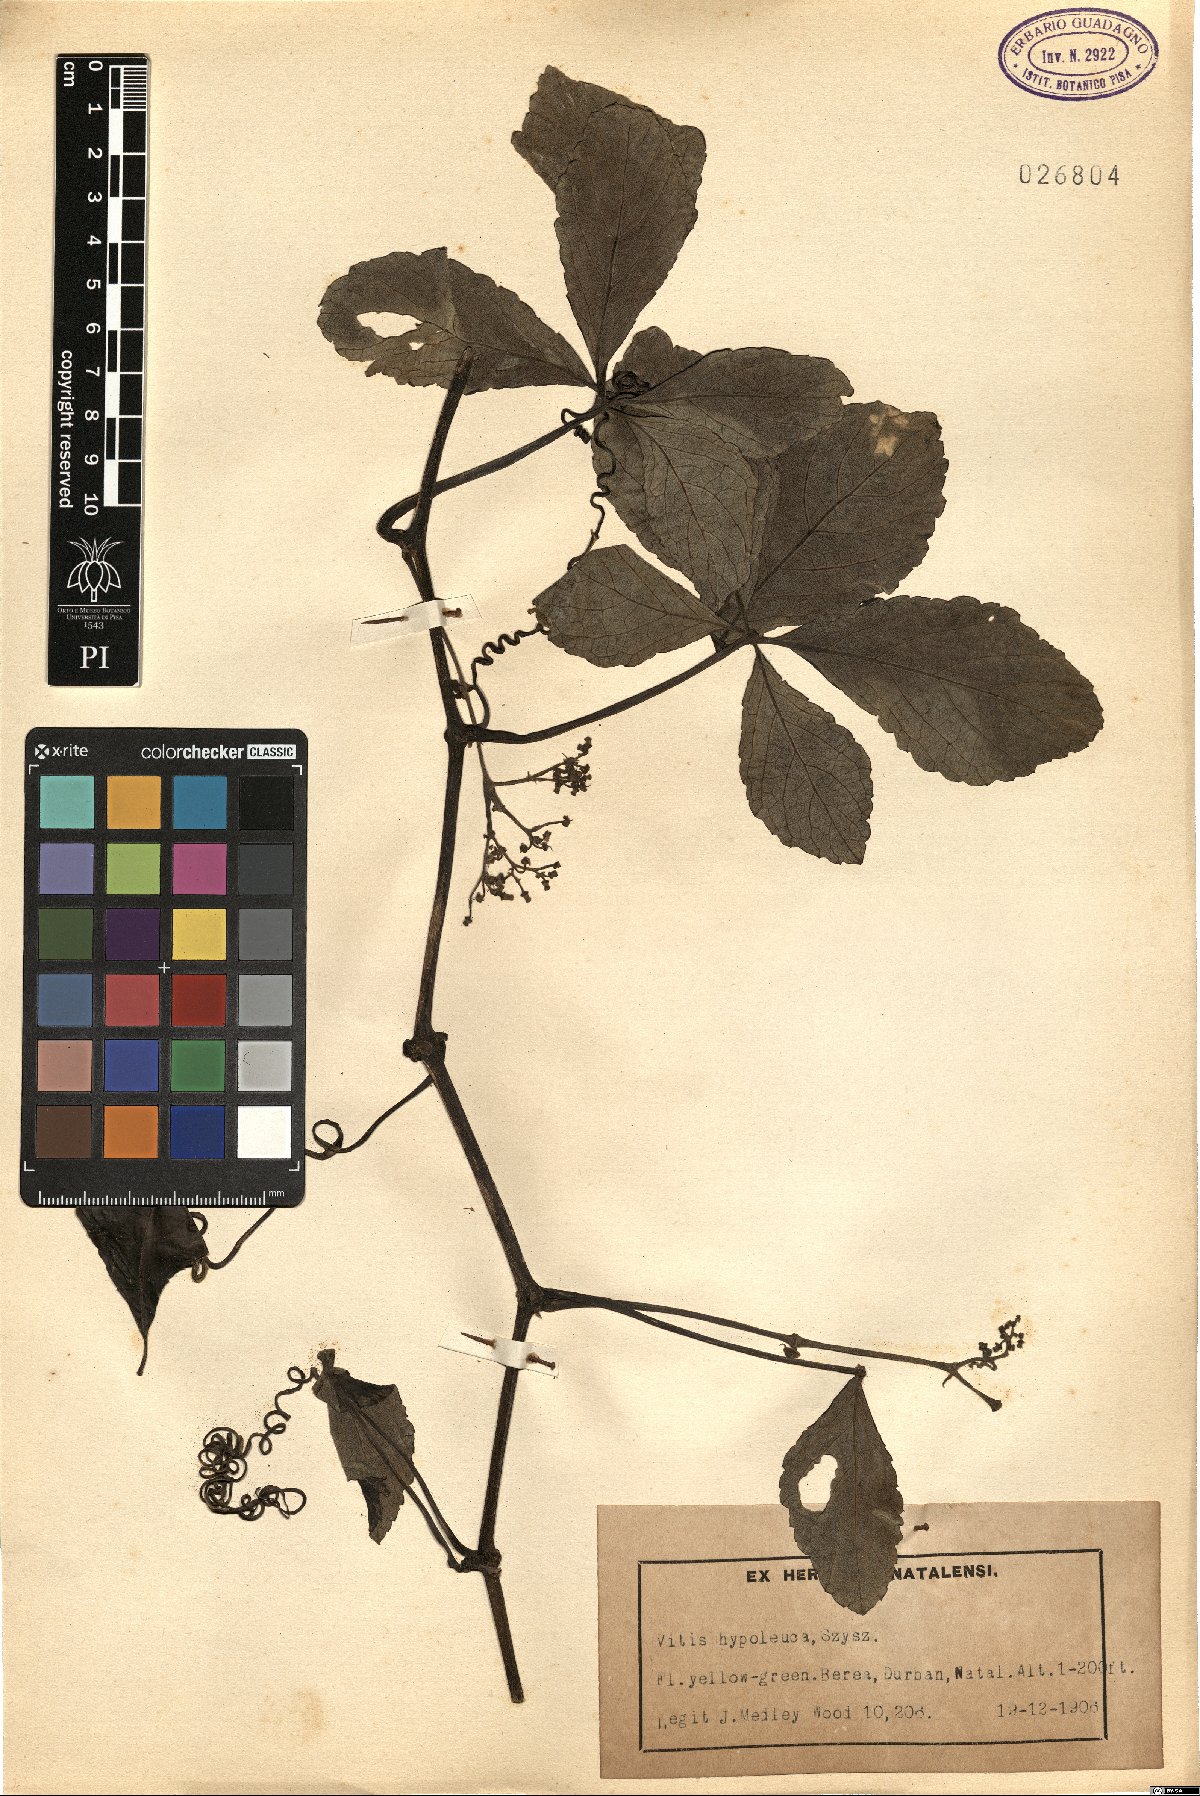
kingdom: Plantae
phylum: Tracheophyta
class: Magnoliopsida
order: Vitales
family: Vitaceae
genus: Cyphostemma
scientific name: Cyphostemma hypoleucum
